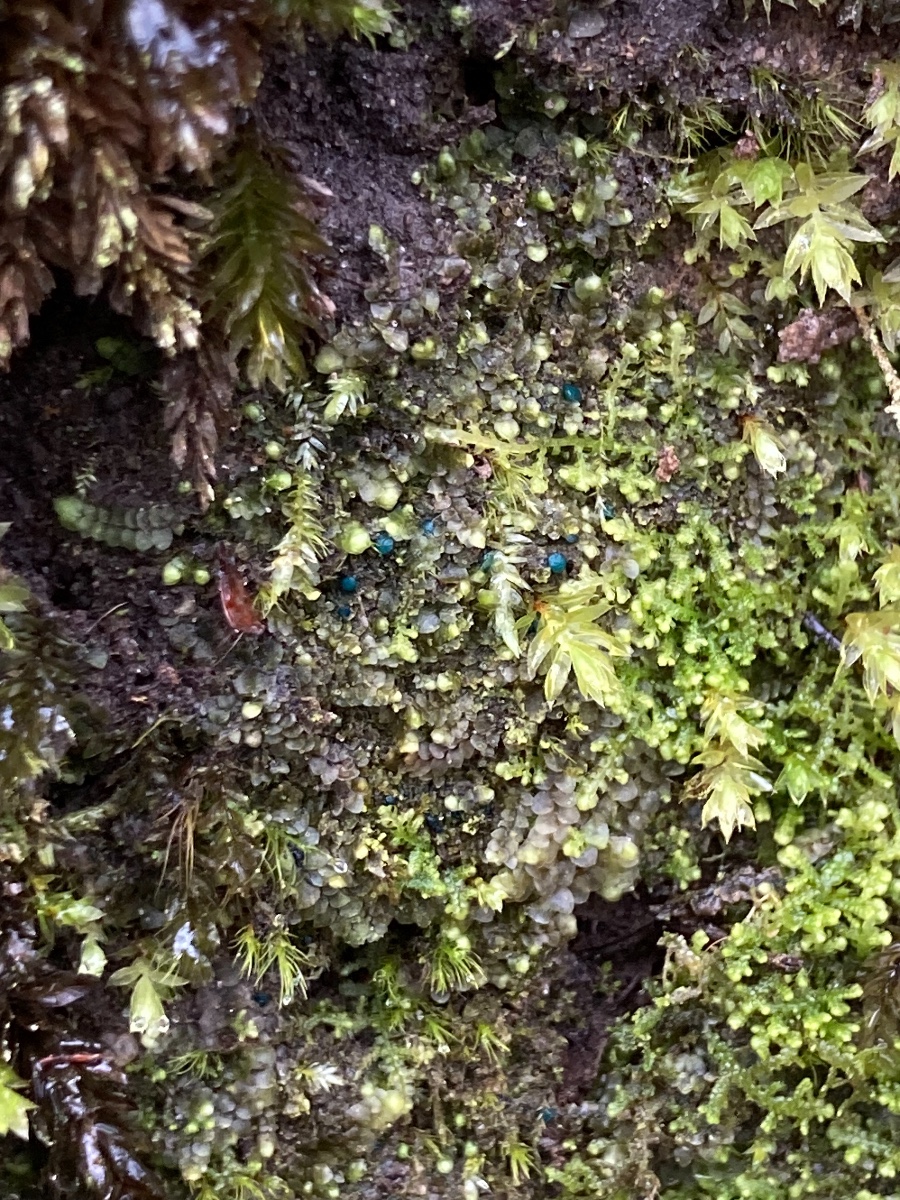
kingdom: Fungi
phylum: Ascomycota
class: Leotiomycetes
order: Leotiales
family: Mniaeciaceae
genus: Mniaecia
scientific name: Mniaecia jungermanniae
